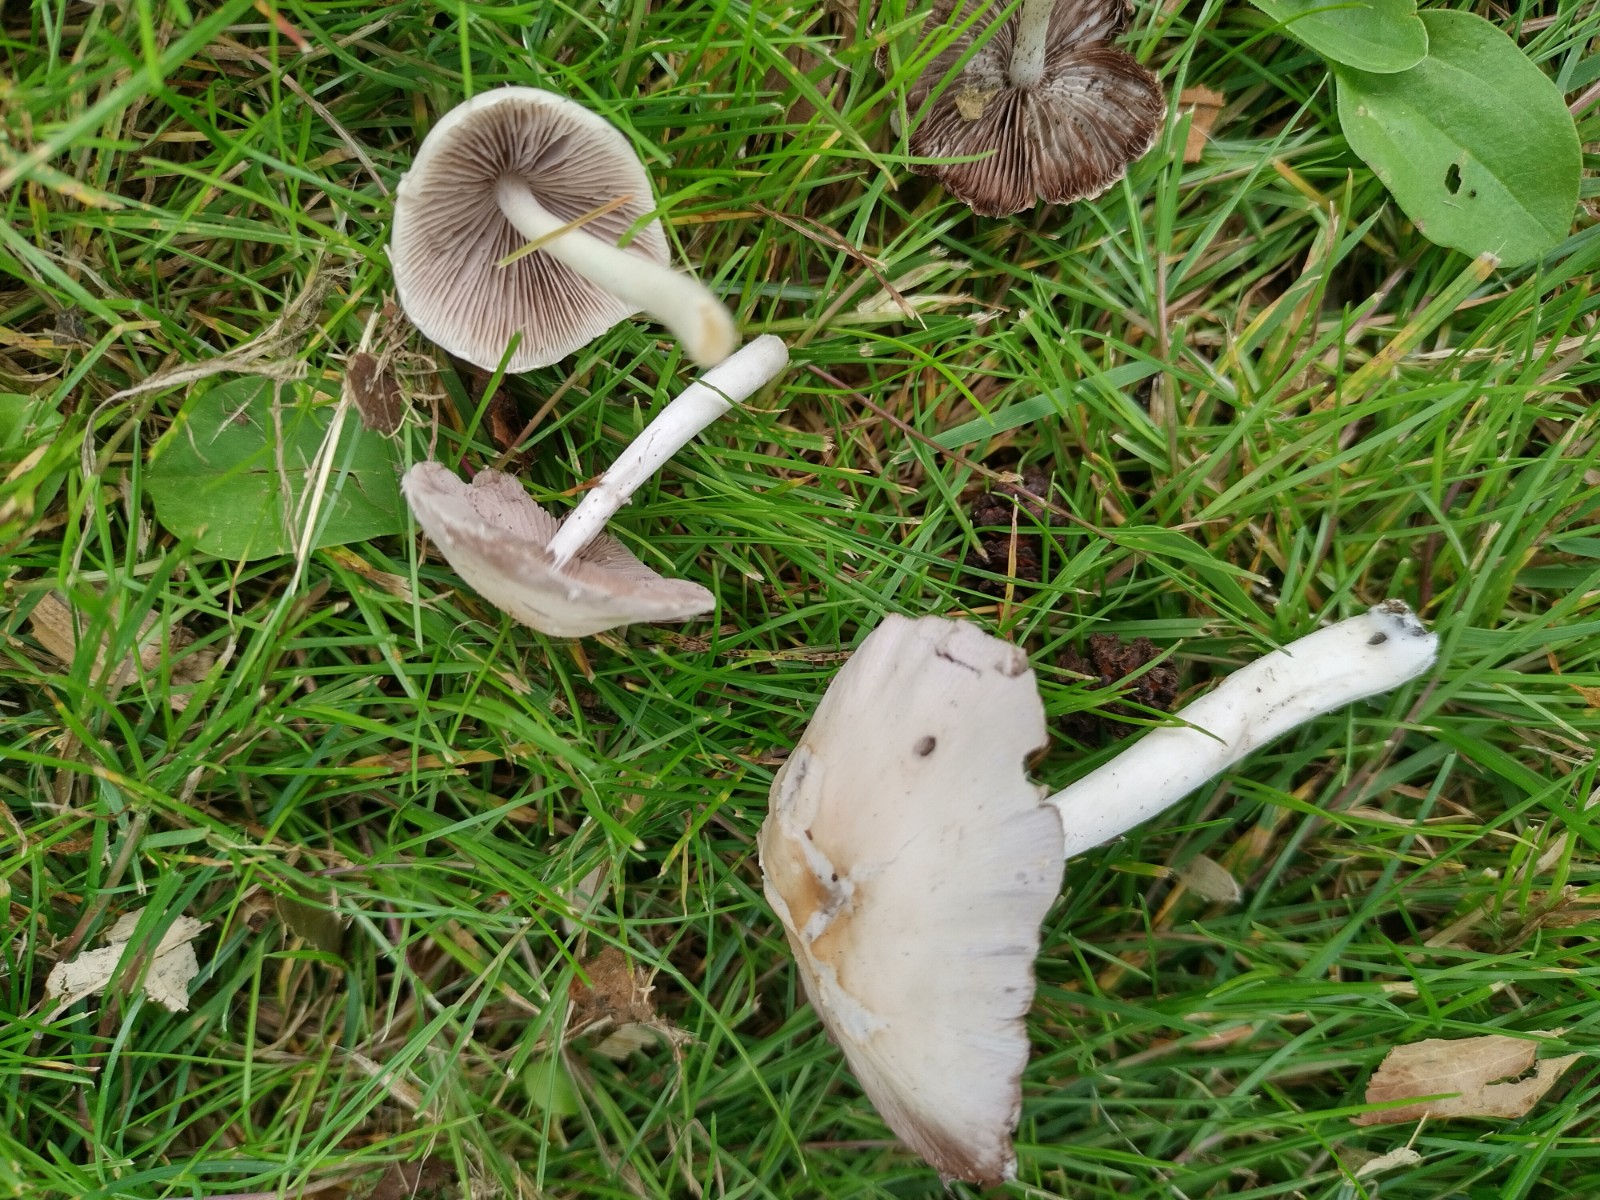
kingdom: Fungi
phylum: Basidiomycota
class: Agaricomycetes
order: Agaricales
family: Psathyrellaceae
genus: Candolleomyces
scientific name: Candolleomyces candolleanus
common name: Candolles mørkhat
